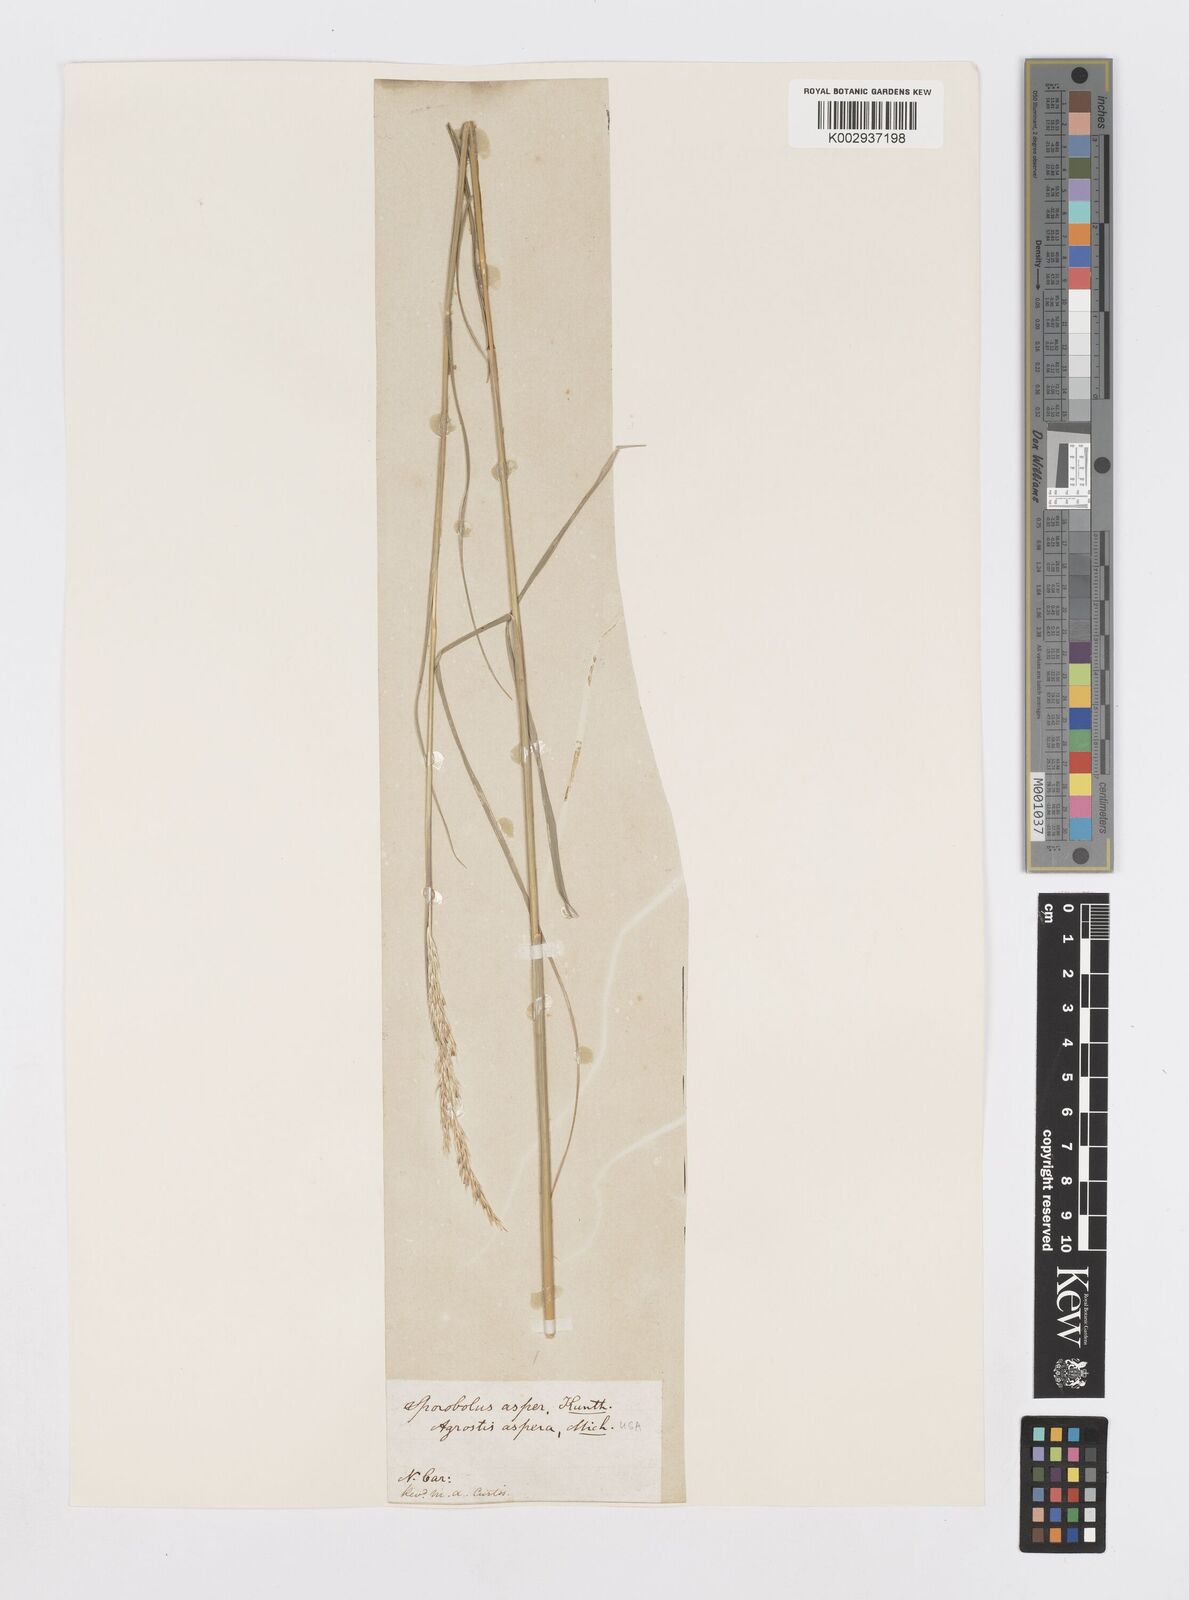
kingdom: Plantae
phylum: Tracheophyta
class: Liliopsida
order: Poales
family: Poaceae
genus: Sporobolus
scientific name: Sporobolus compositus
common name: Rough dropseed
